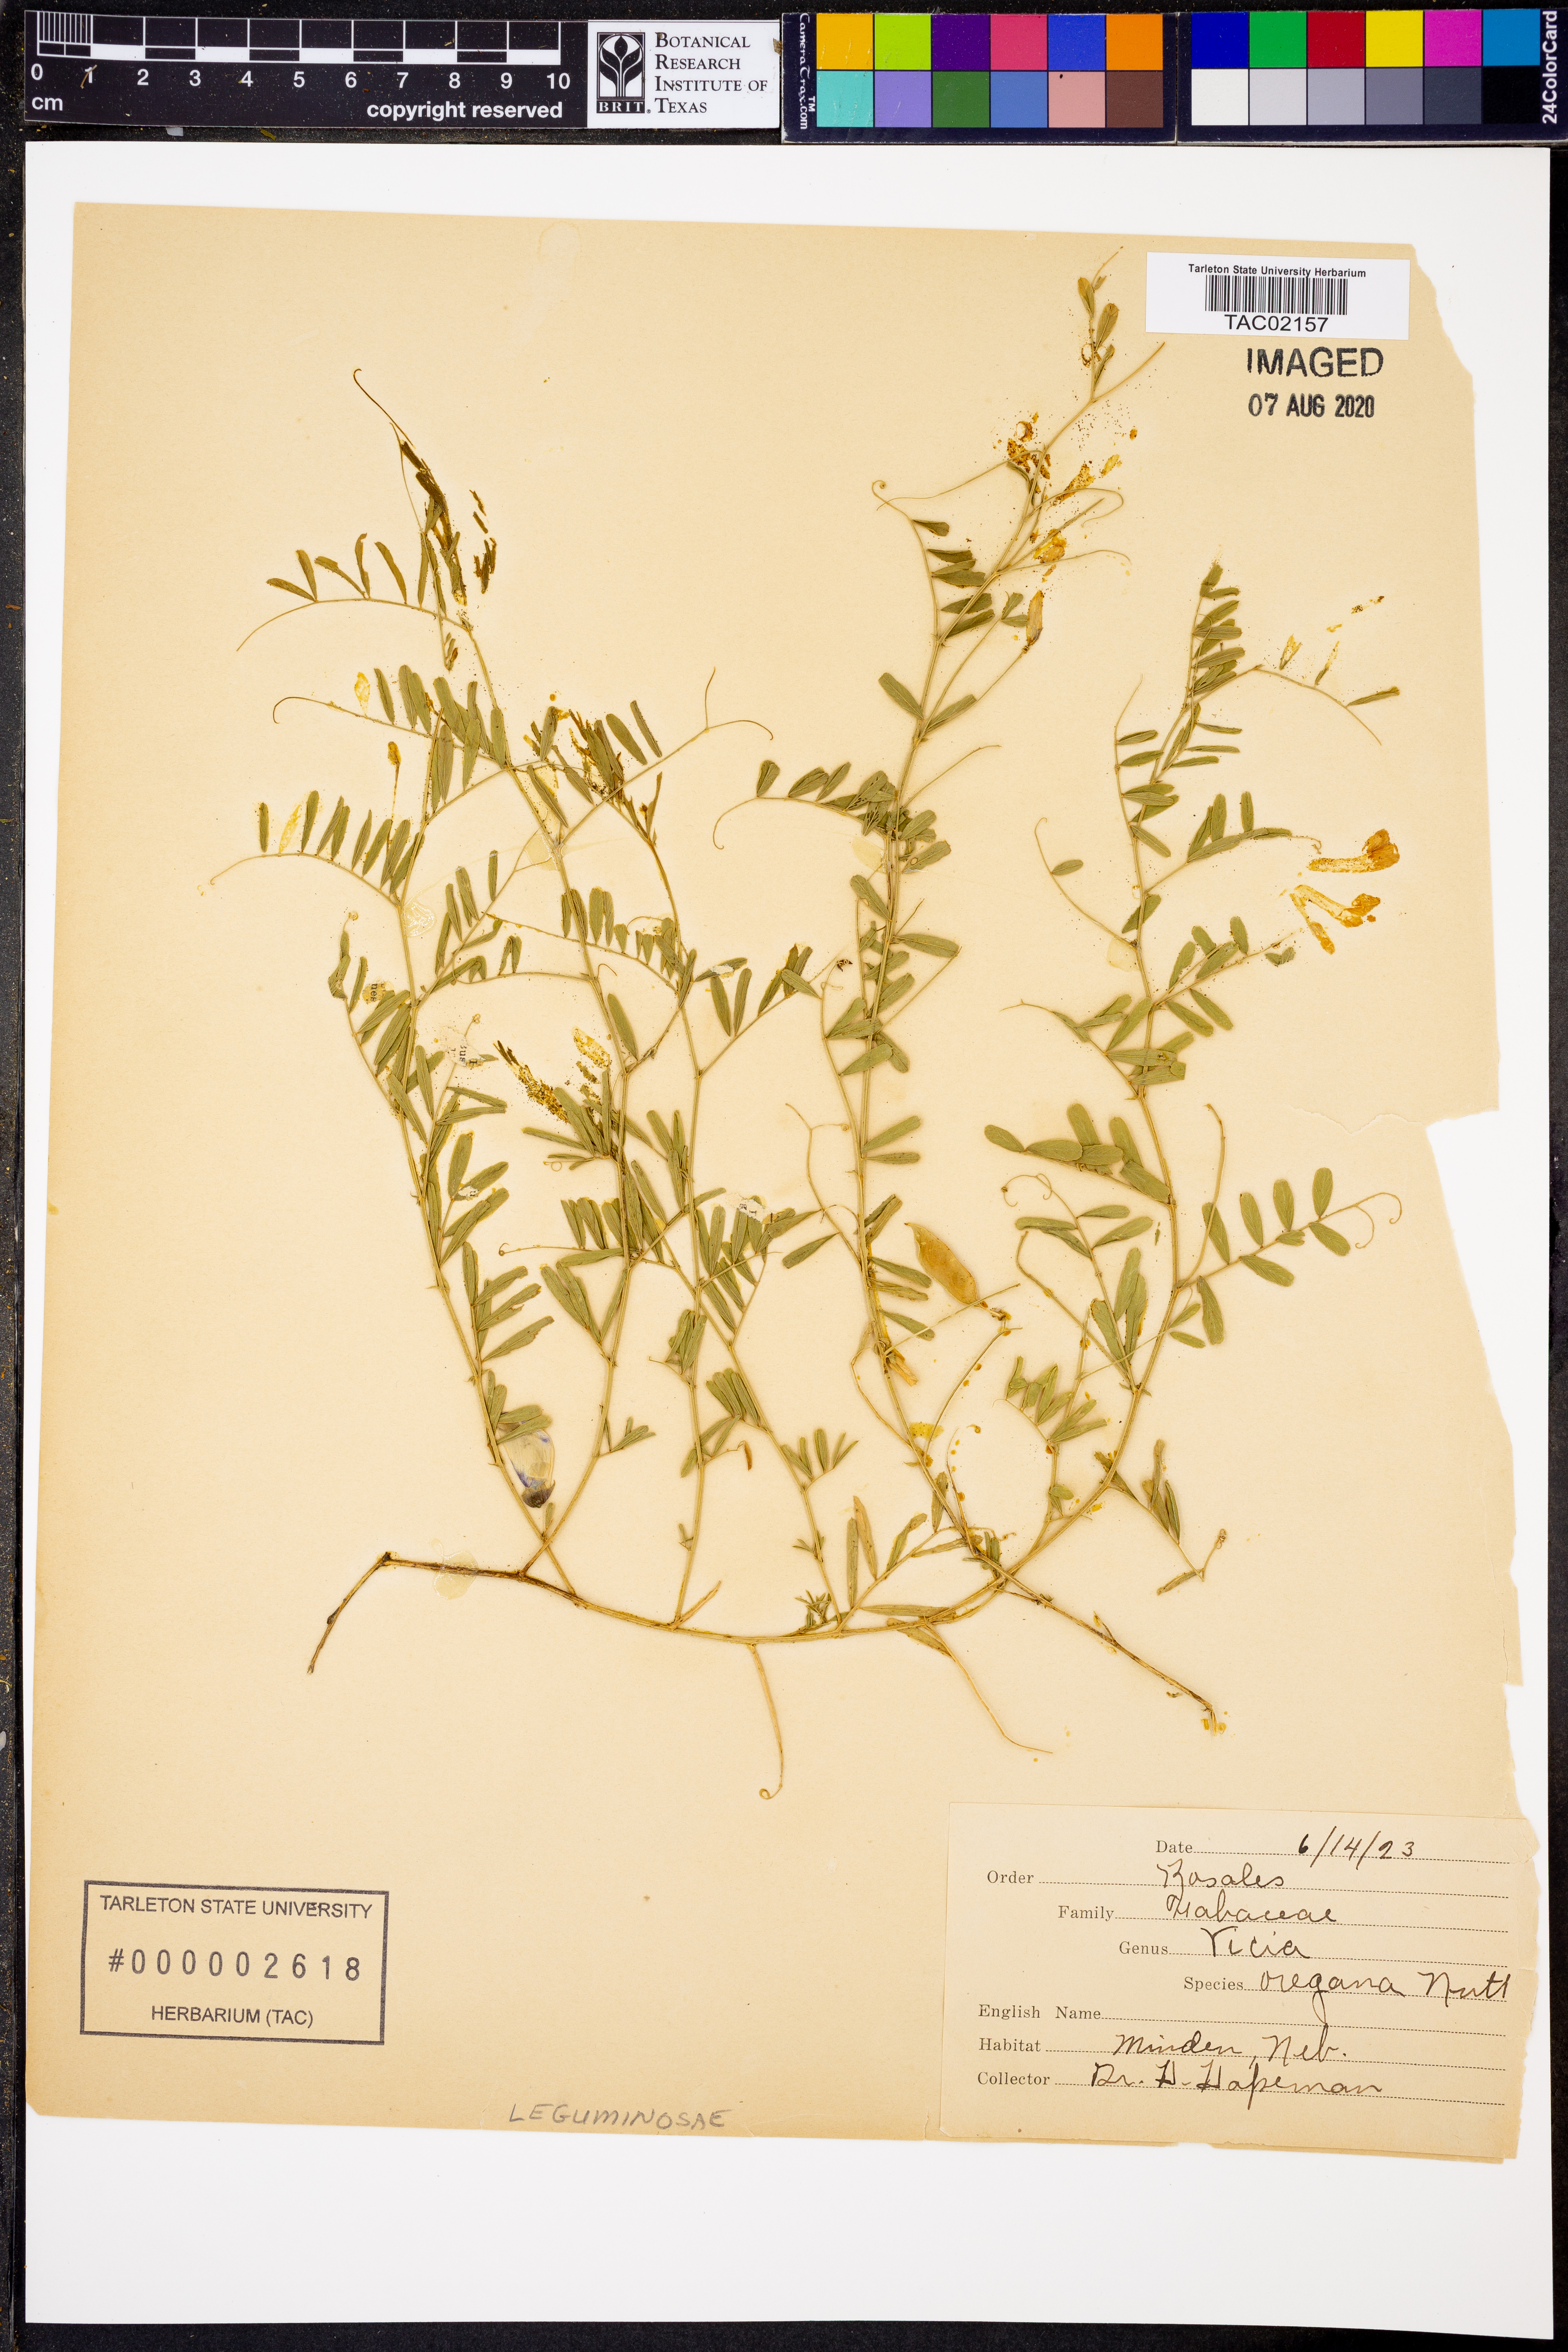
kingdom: Plantae
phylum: Tracheophyta
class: Magnoliopsida
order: Fabales
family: Fabaceae
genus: Vicia
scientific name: Vicia americana
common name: American vetch
